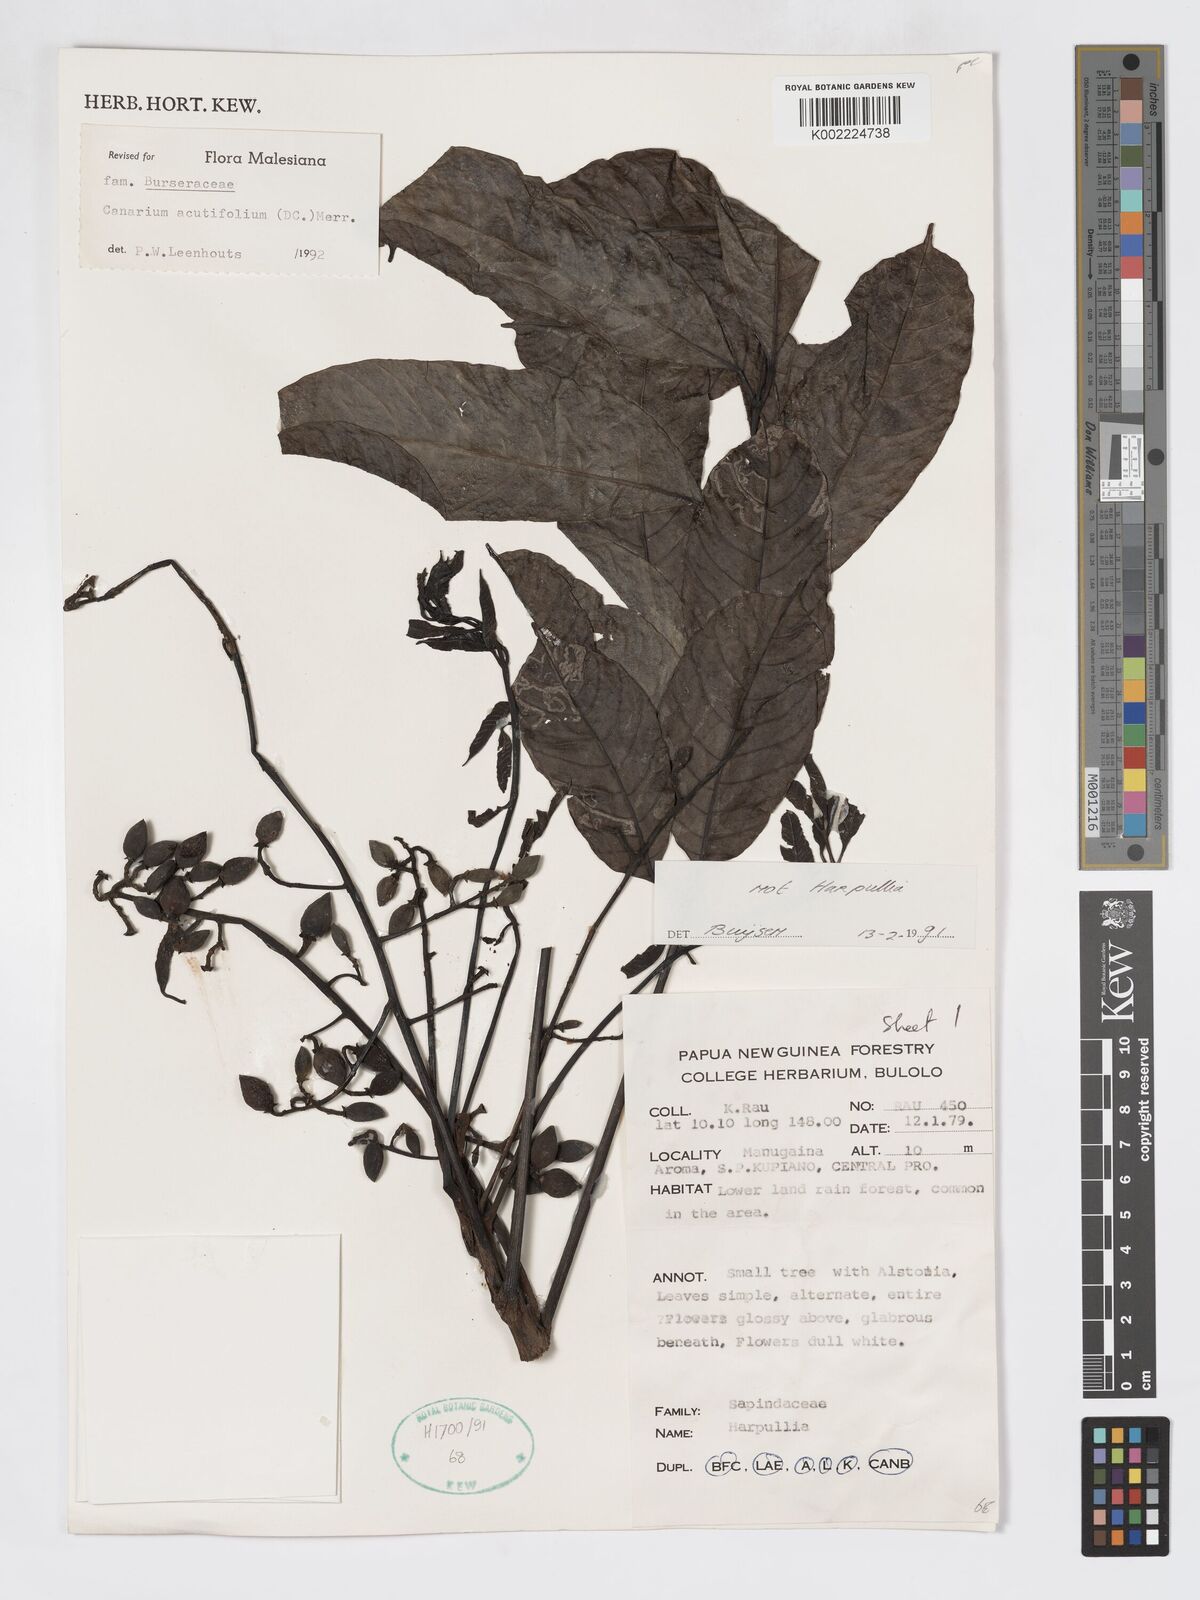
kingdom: Plantae
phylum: Tracheophyta
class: Magnoliopsida
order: Sapindales
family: Burseraceae
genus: Canarium
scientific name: Canarium acutifolium
